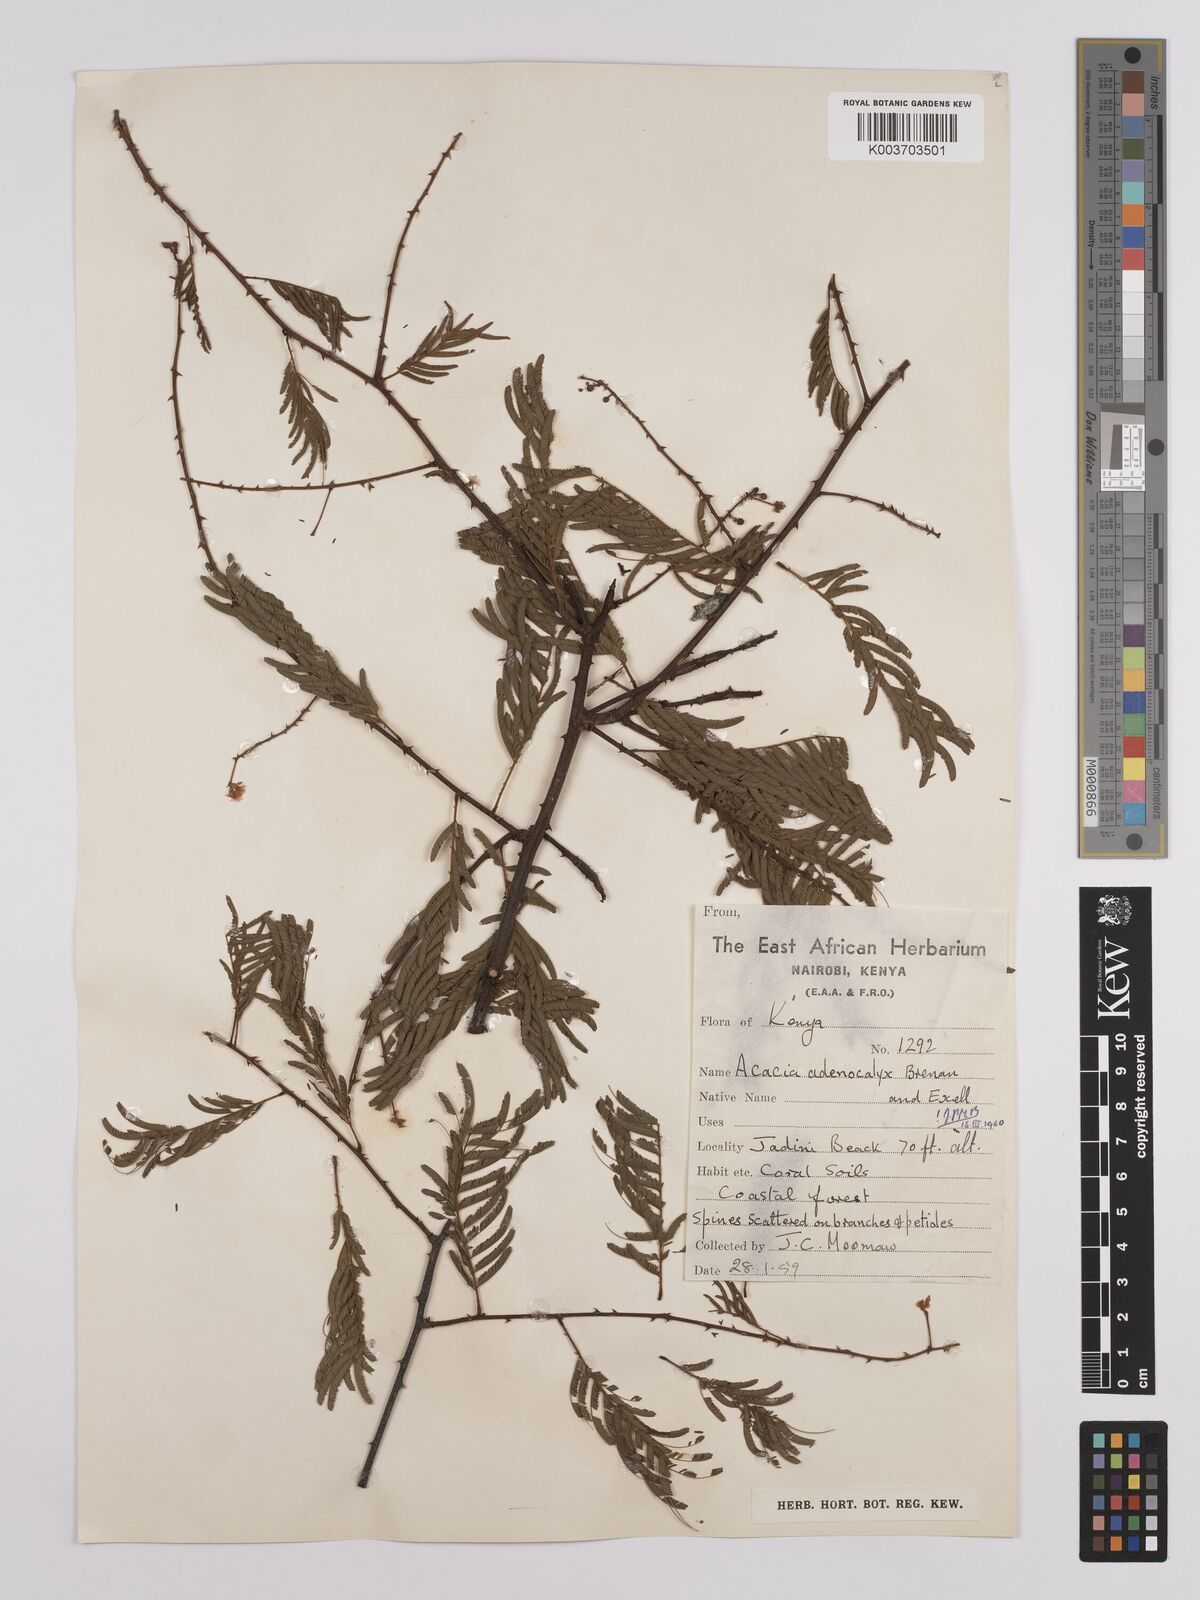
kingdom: Plantae
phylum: Tracheophyta
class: Magnoliopsida
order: Fabales
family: Fabaceae
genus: Senegalia
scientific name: Senegalia adenocalyx
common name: Pfurura
